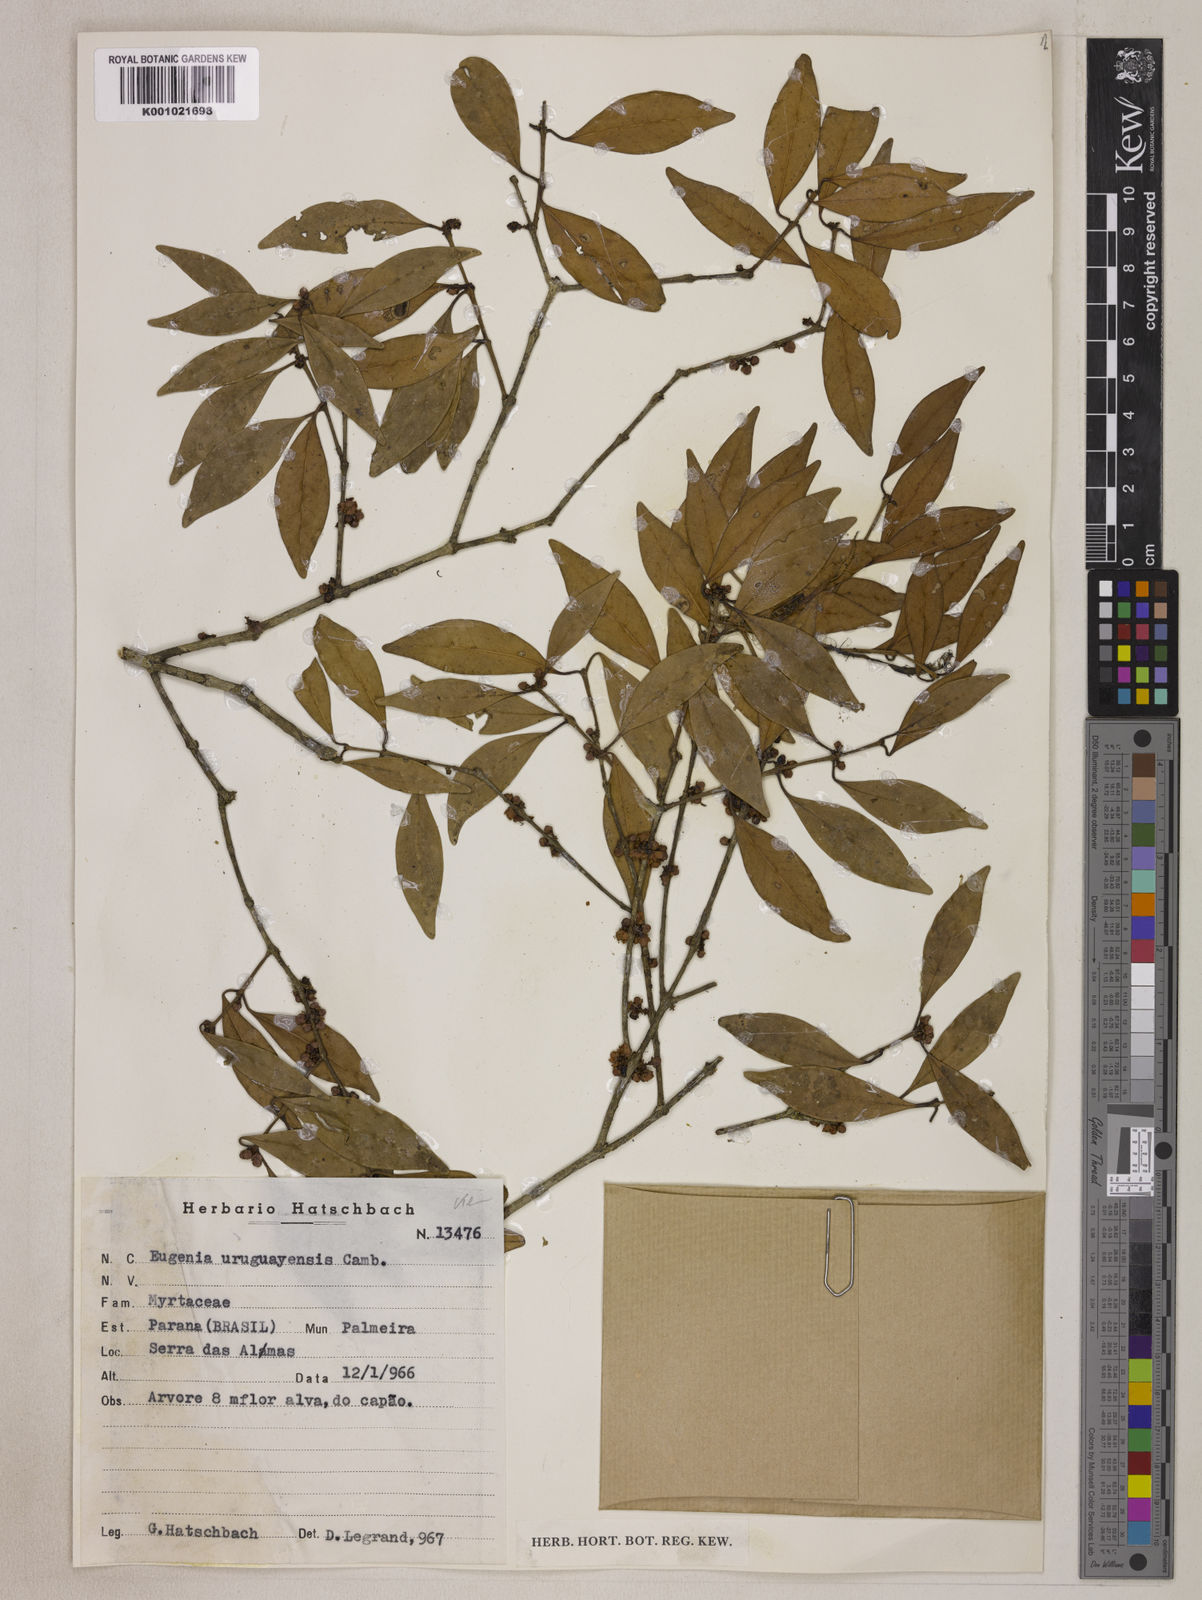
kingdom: Plantae
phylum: Tracheophyta
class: Magnoliopsida
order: Myrtales
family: Myrtaceae
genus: Eugenia
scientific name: Eugenia uruguayensis
